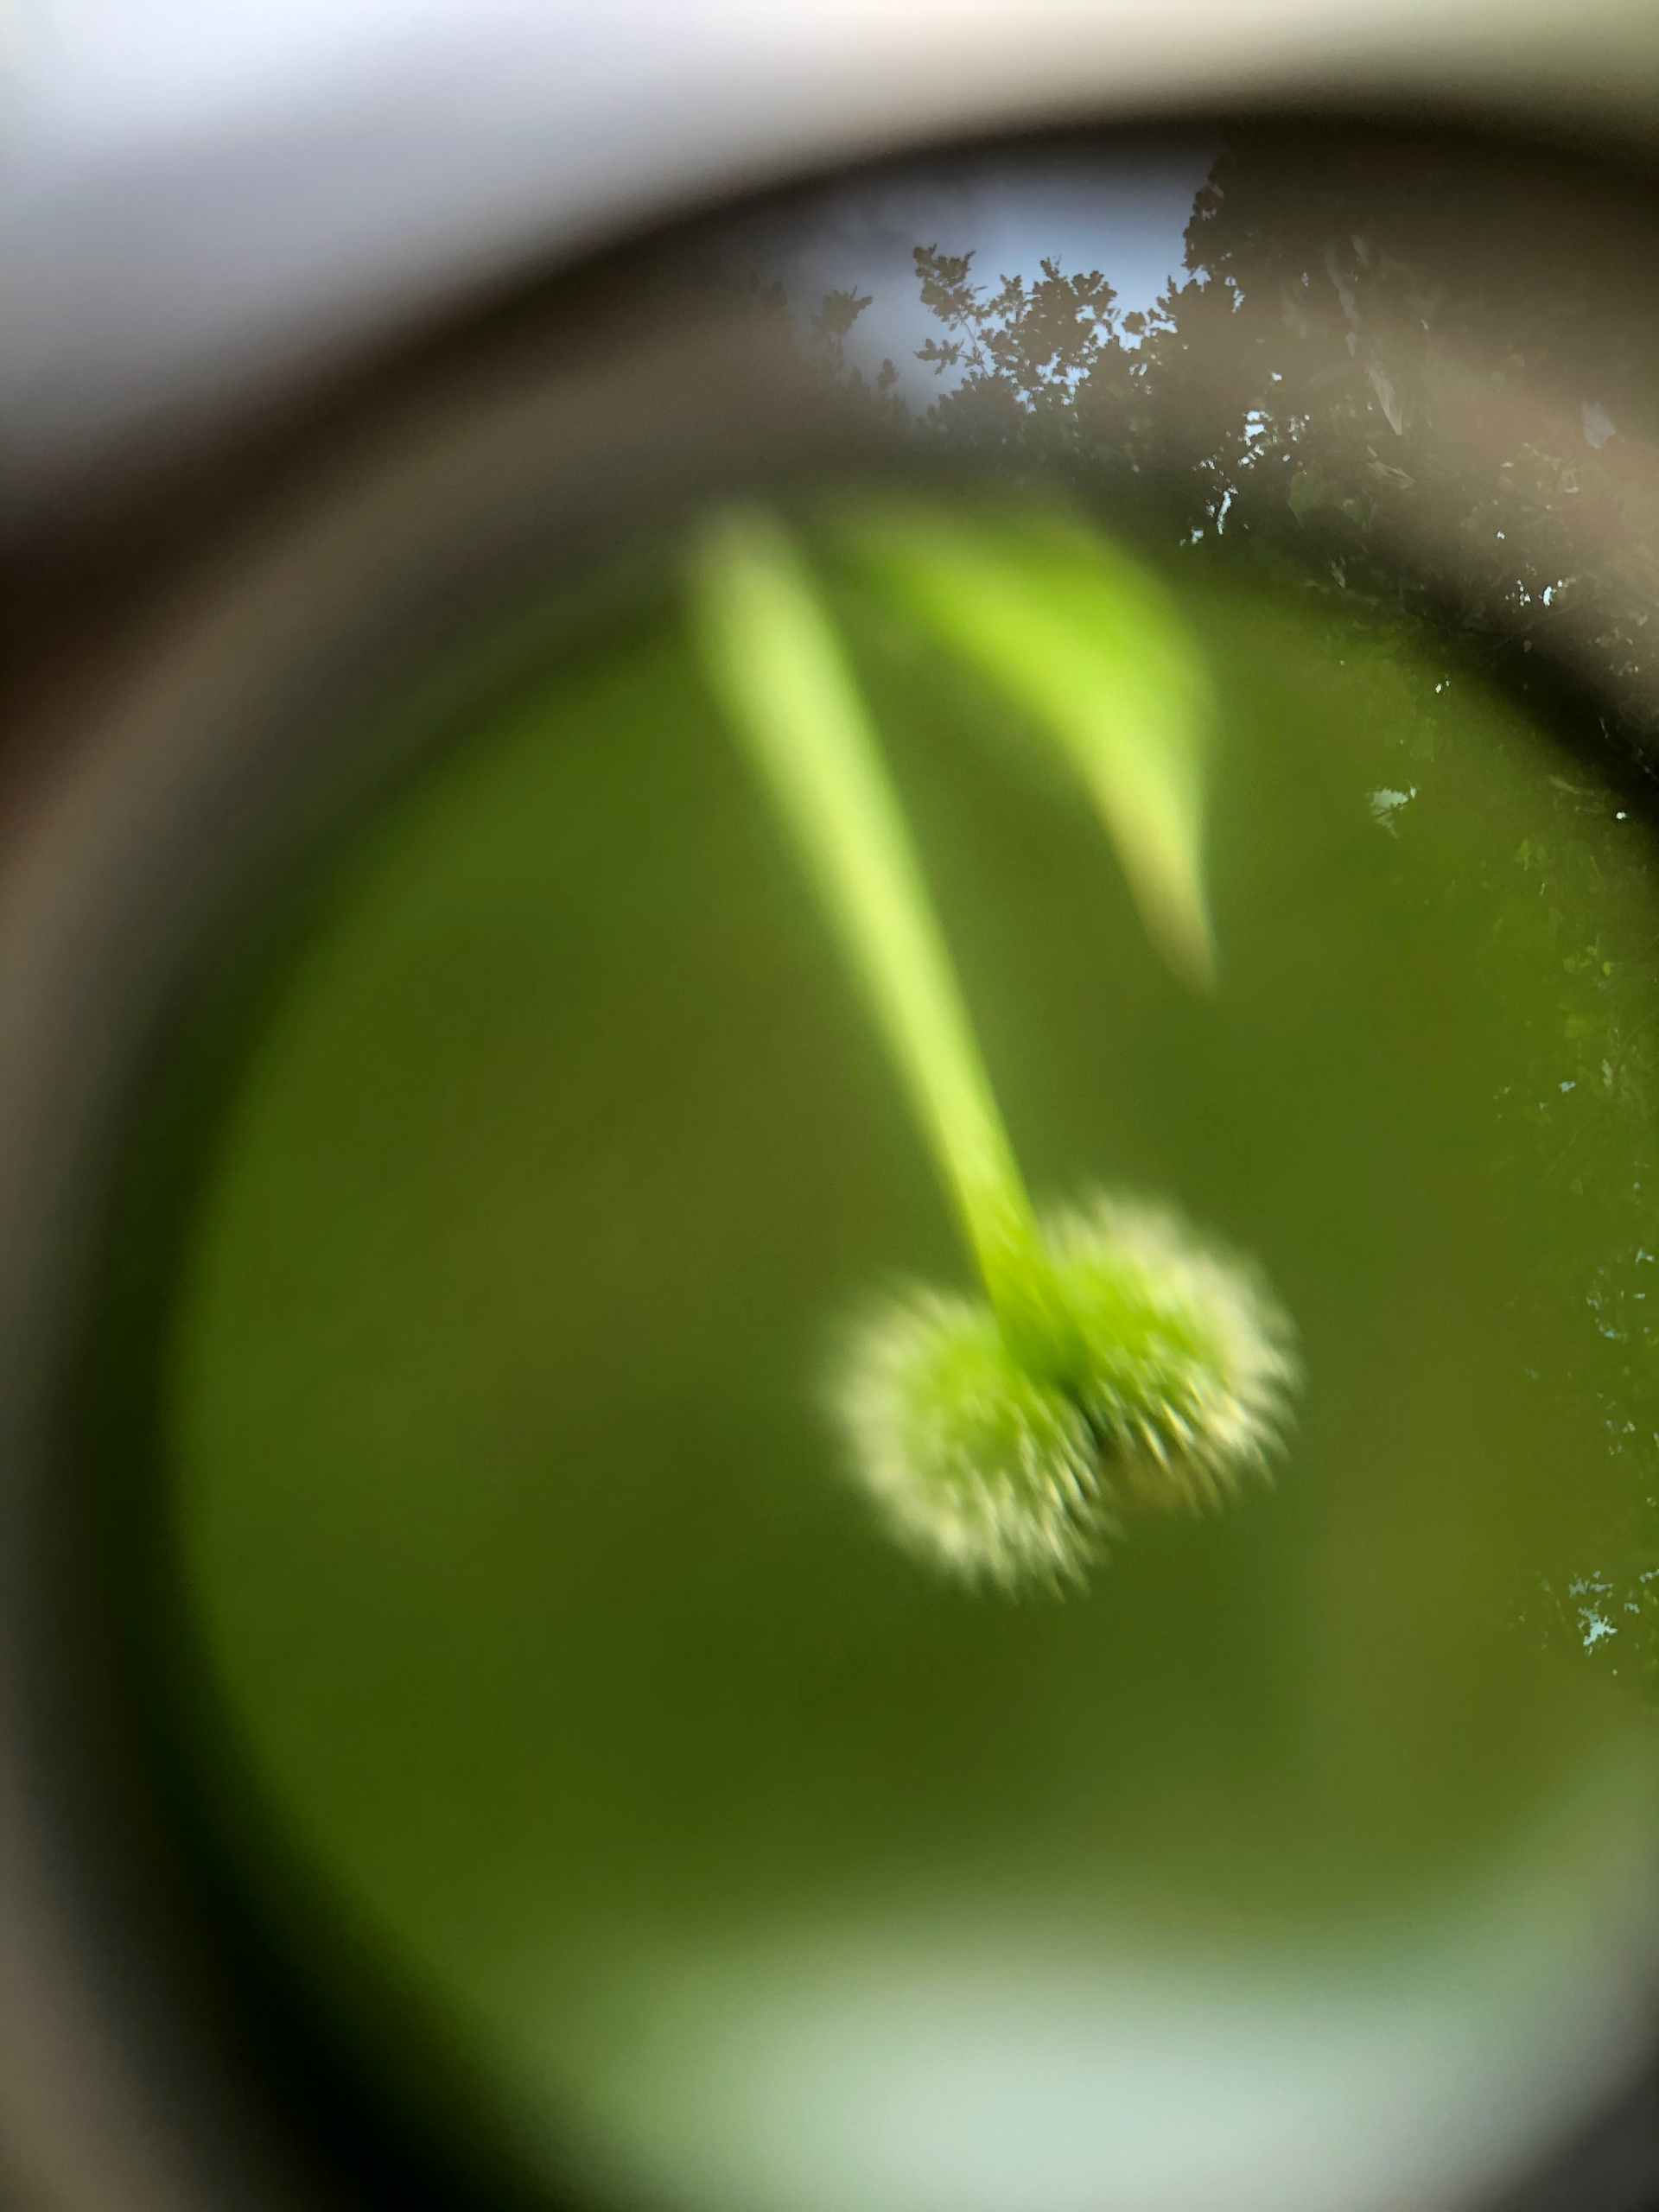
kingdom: Plantae
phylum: Tracheophyta
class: Magnoliopsida
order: Gentianales
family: Rubiaceae
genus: Galium
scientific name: Galium aparine
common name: Burre-snerre
